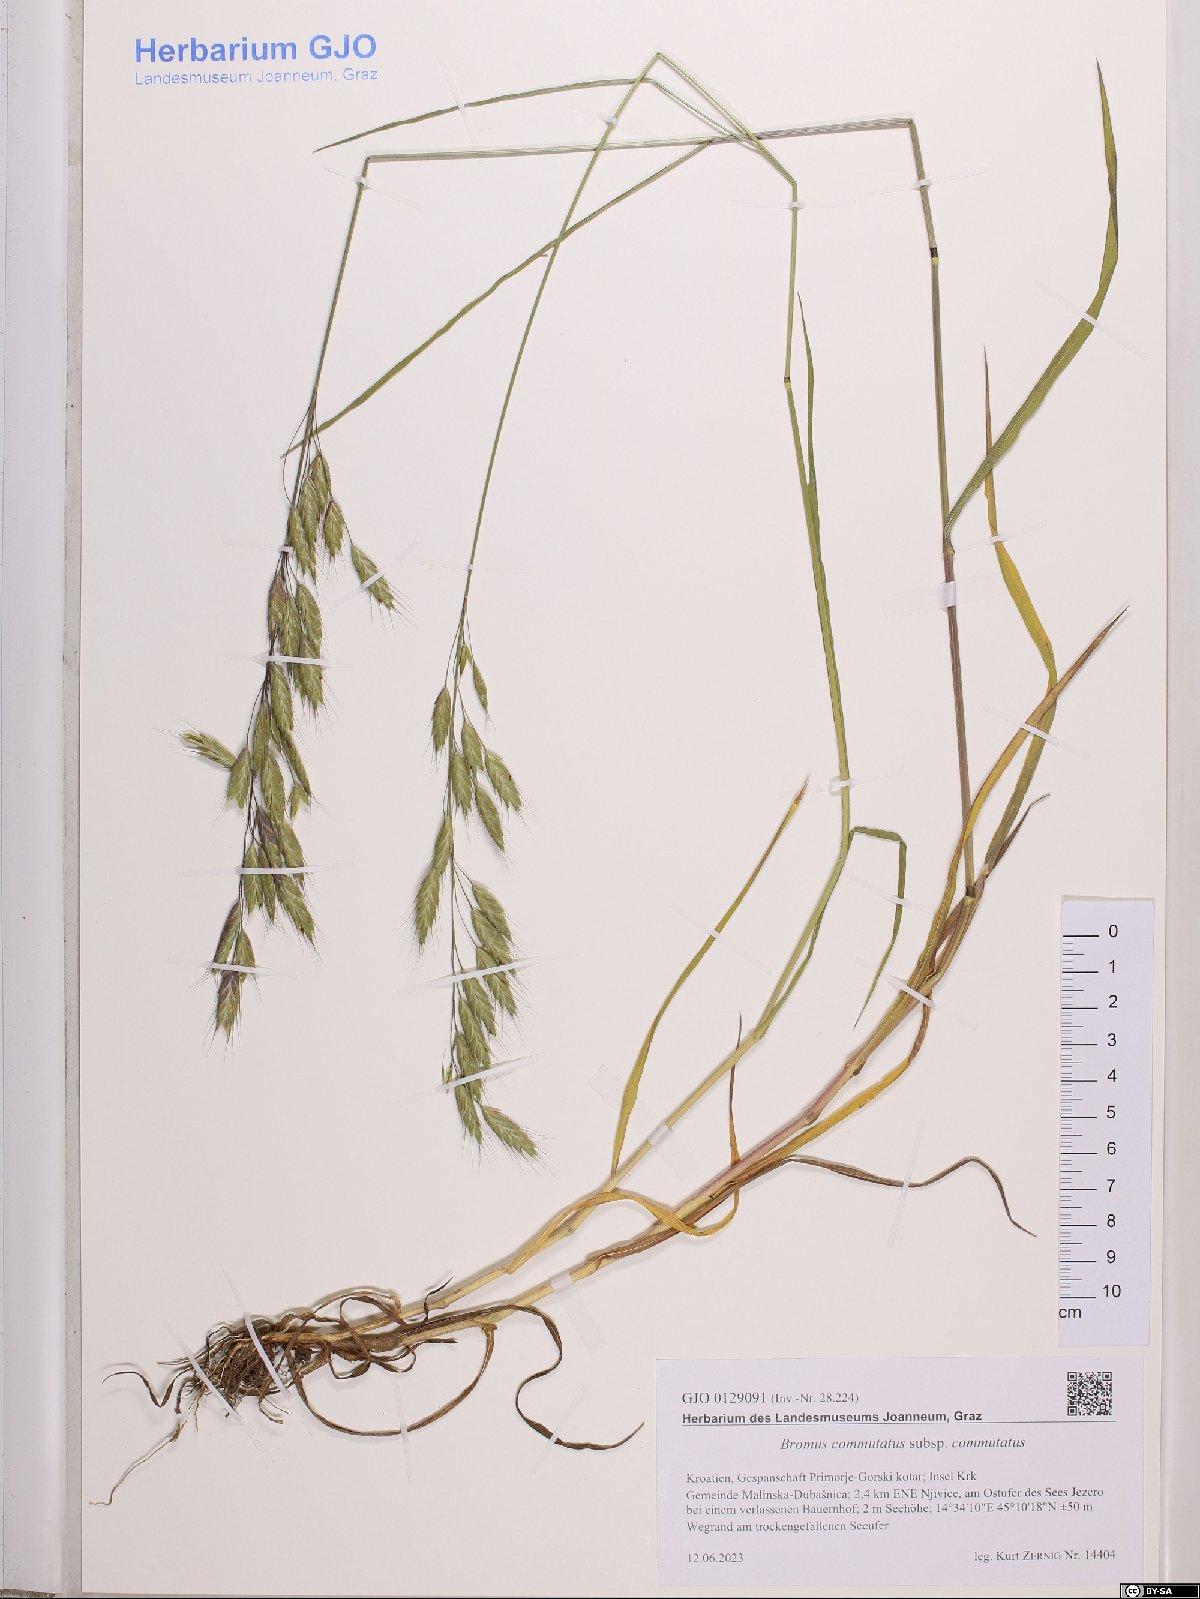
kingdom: Plantae
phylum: Tracheophyta
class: Liliopsida
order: Poales
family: Poaceae
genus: Bromus
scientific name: Bromus commutatus
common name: Meadow brome
